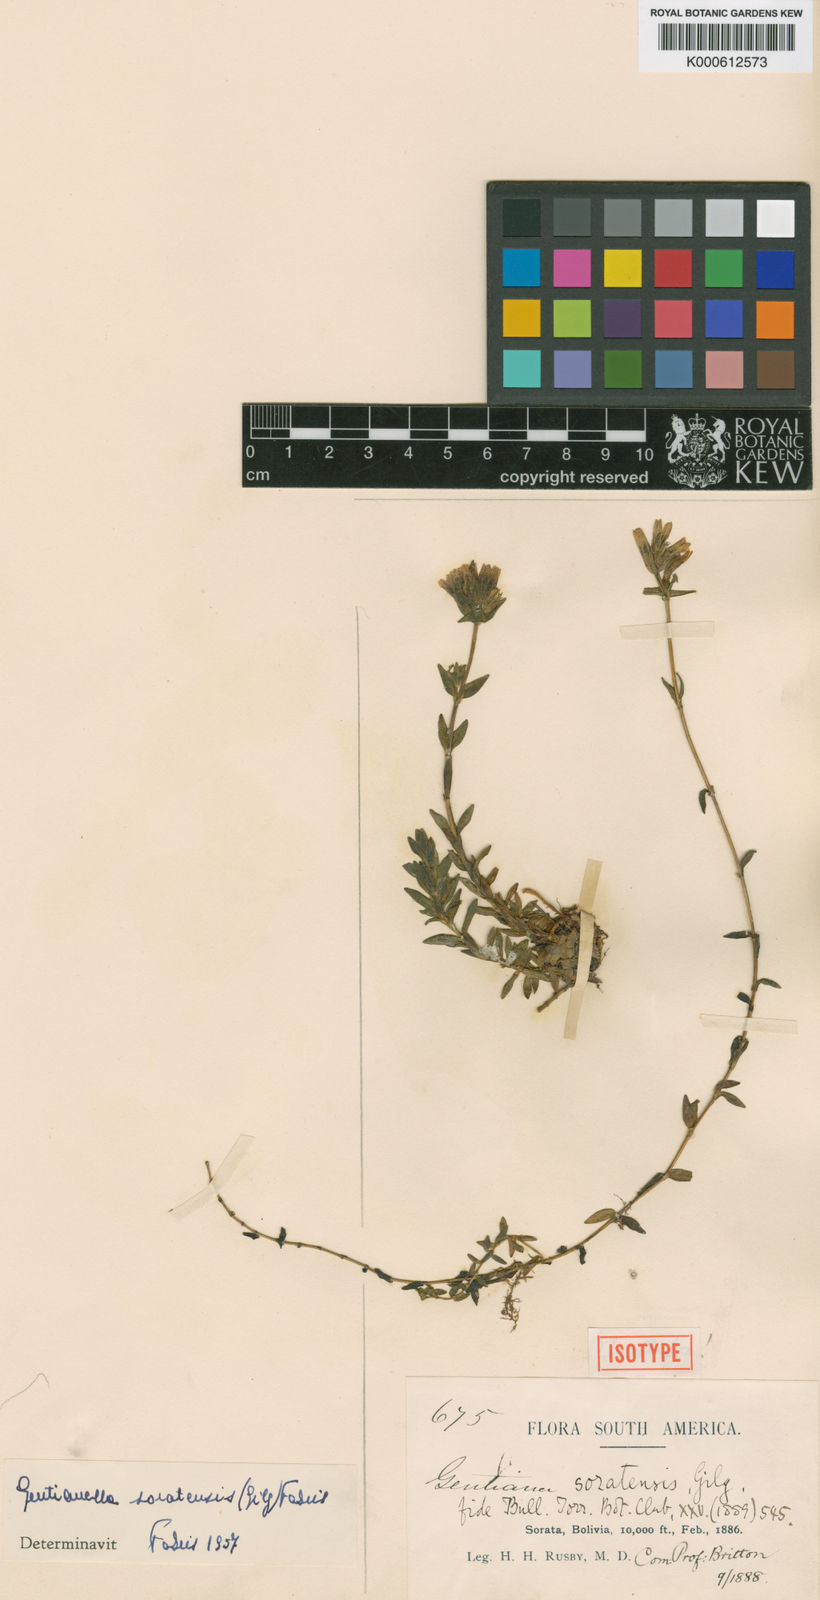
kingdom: Plantae
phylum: Tracheophyta
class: Magnoliopsida
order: Gentianales
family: Gentianaceae
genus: Gentianella
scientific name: Gentianella soratensis
